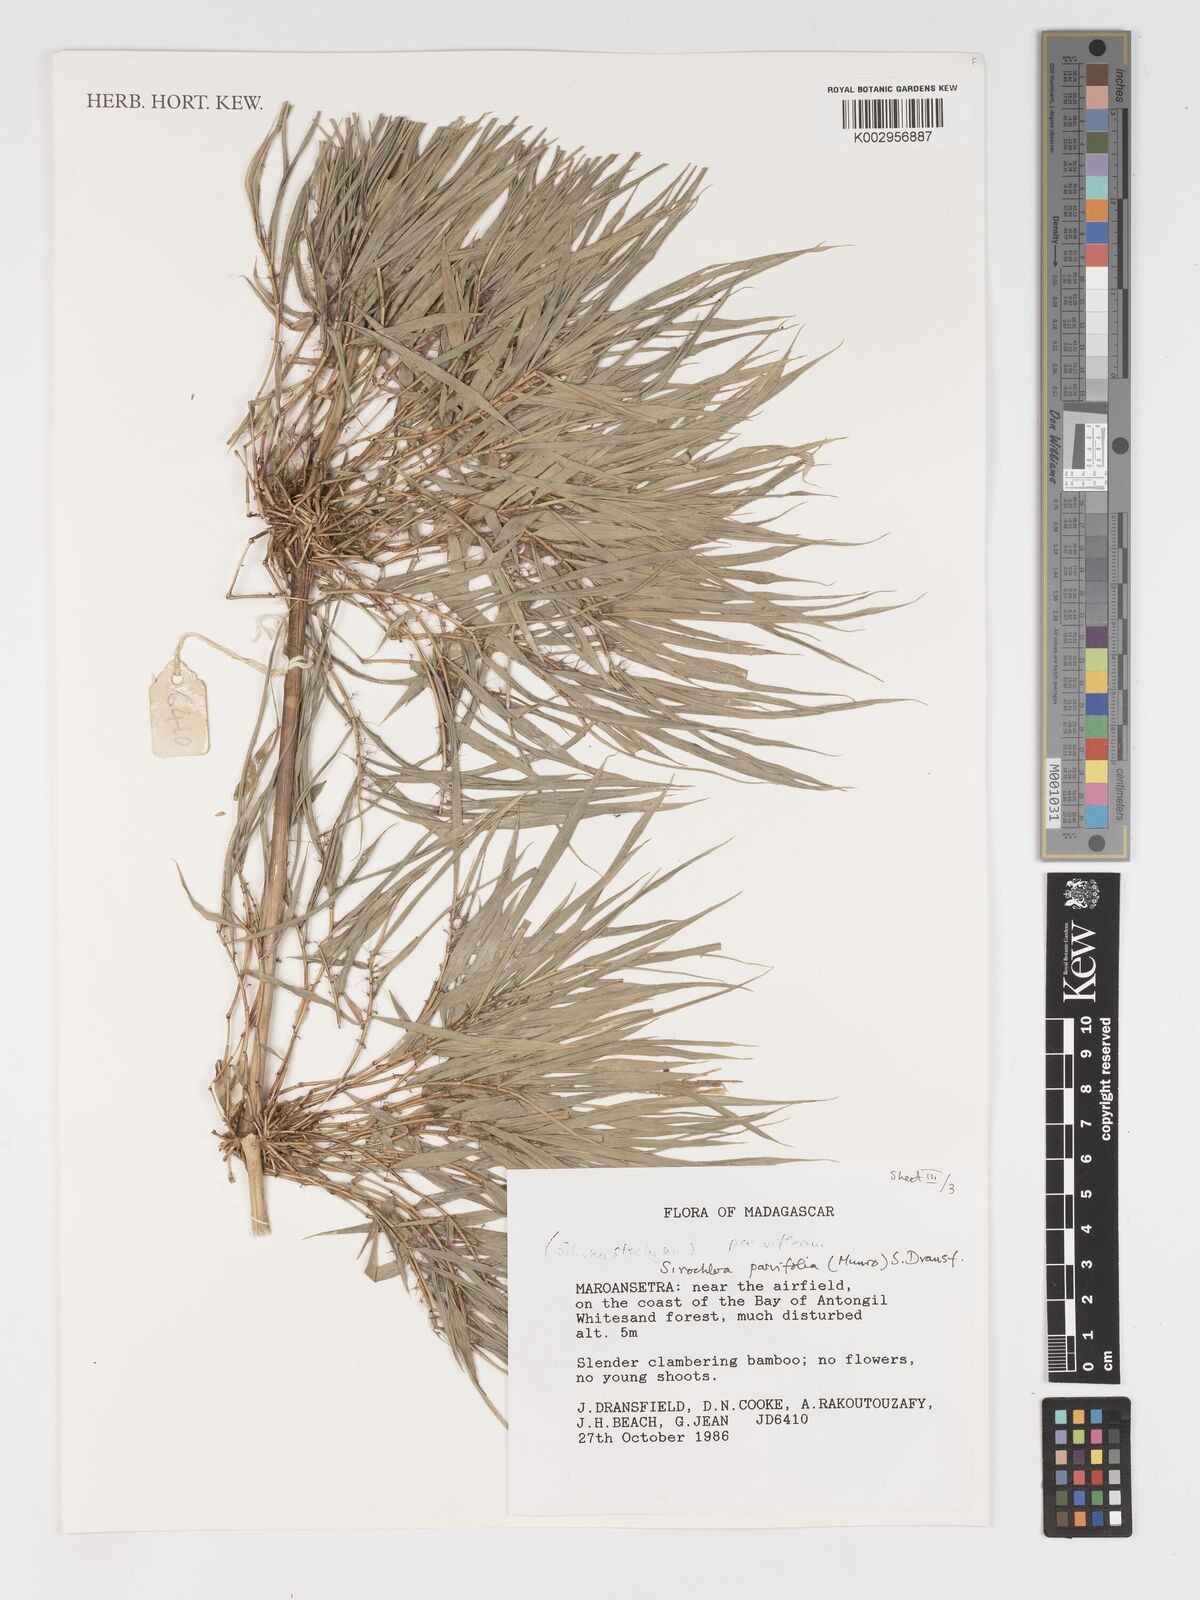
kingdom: Plantae
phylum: Tracheophyta
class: Liliopsida
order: Poales
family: Poaceae
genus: Sirochloa
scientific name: Sirochloa parvifolia
